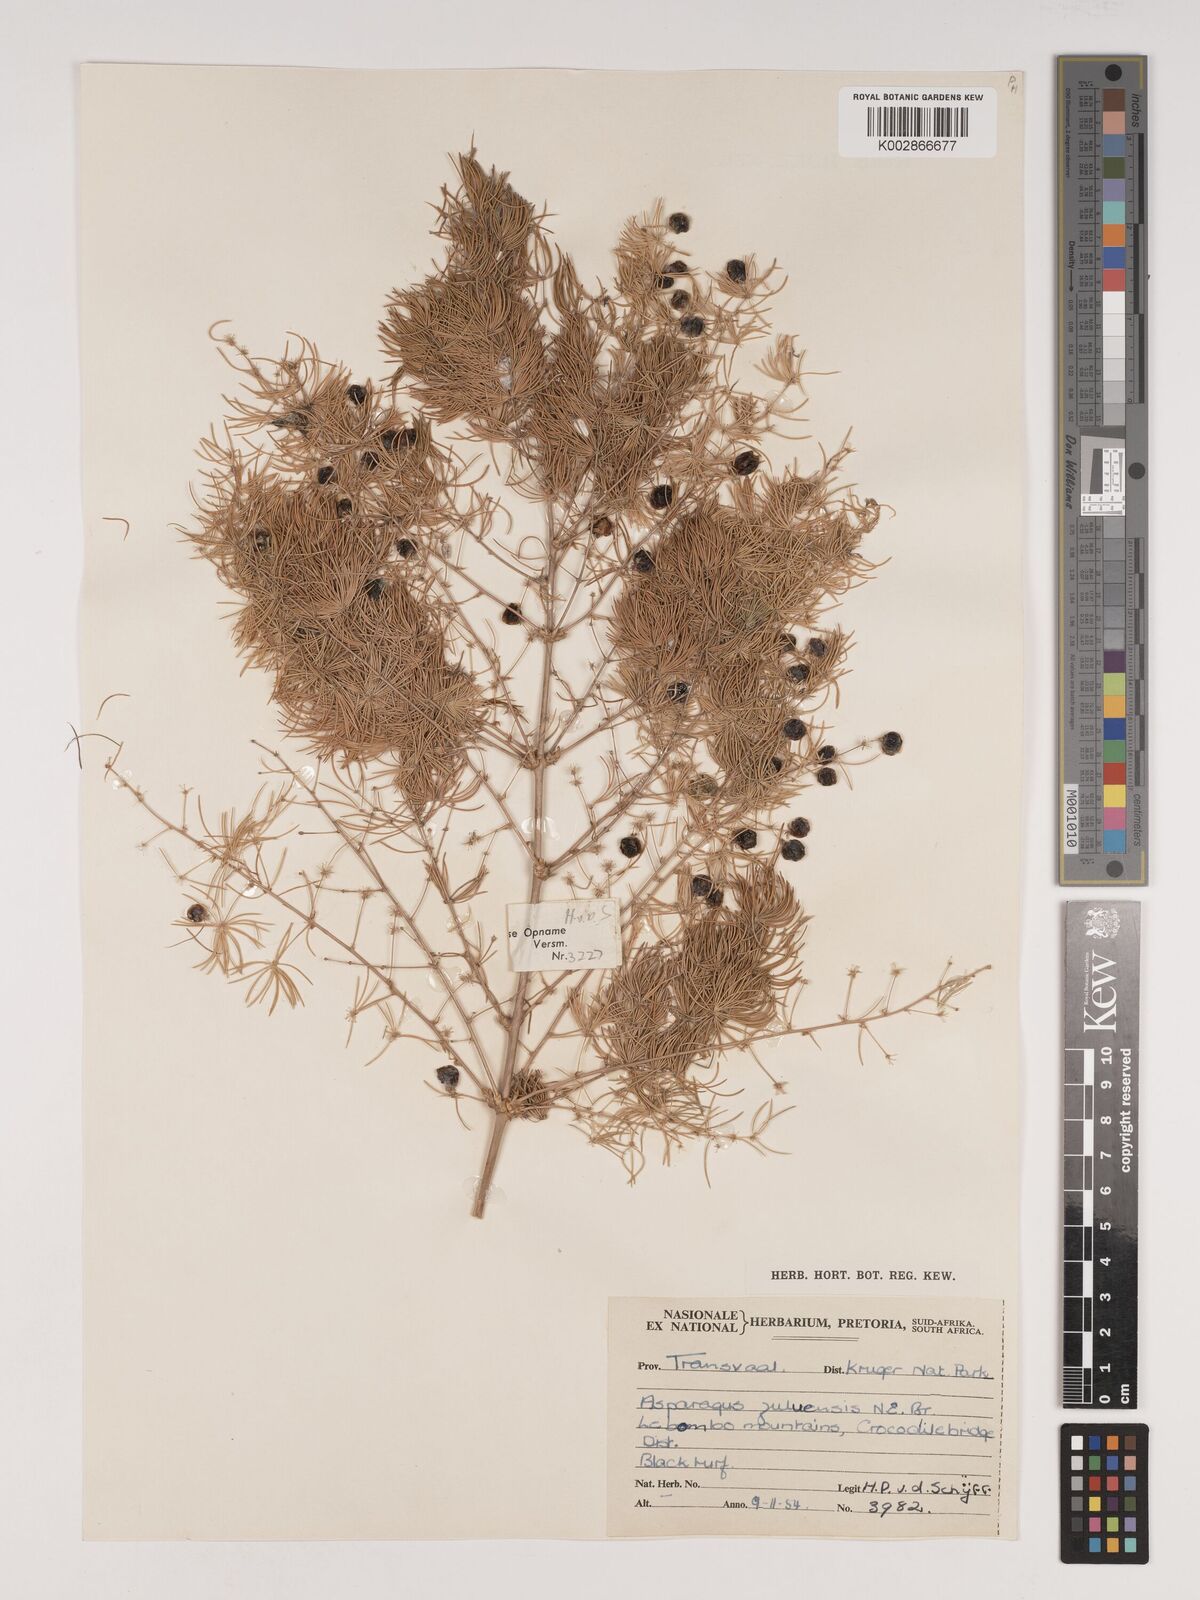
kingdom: Plantae
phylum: Tracheophyta
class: Liliopsida
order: Asparagales
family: Asparagaceae
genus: Asparagus
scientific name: Asparagus
